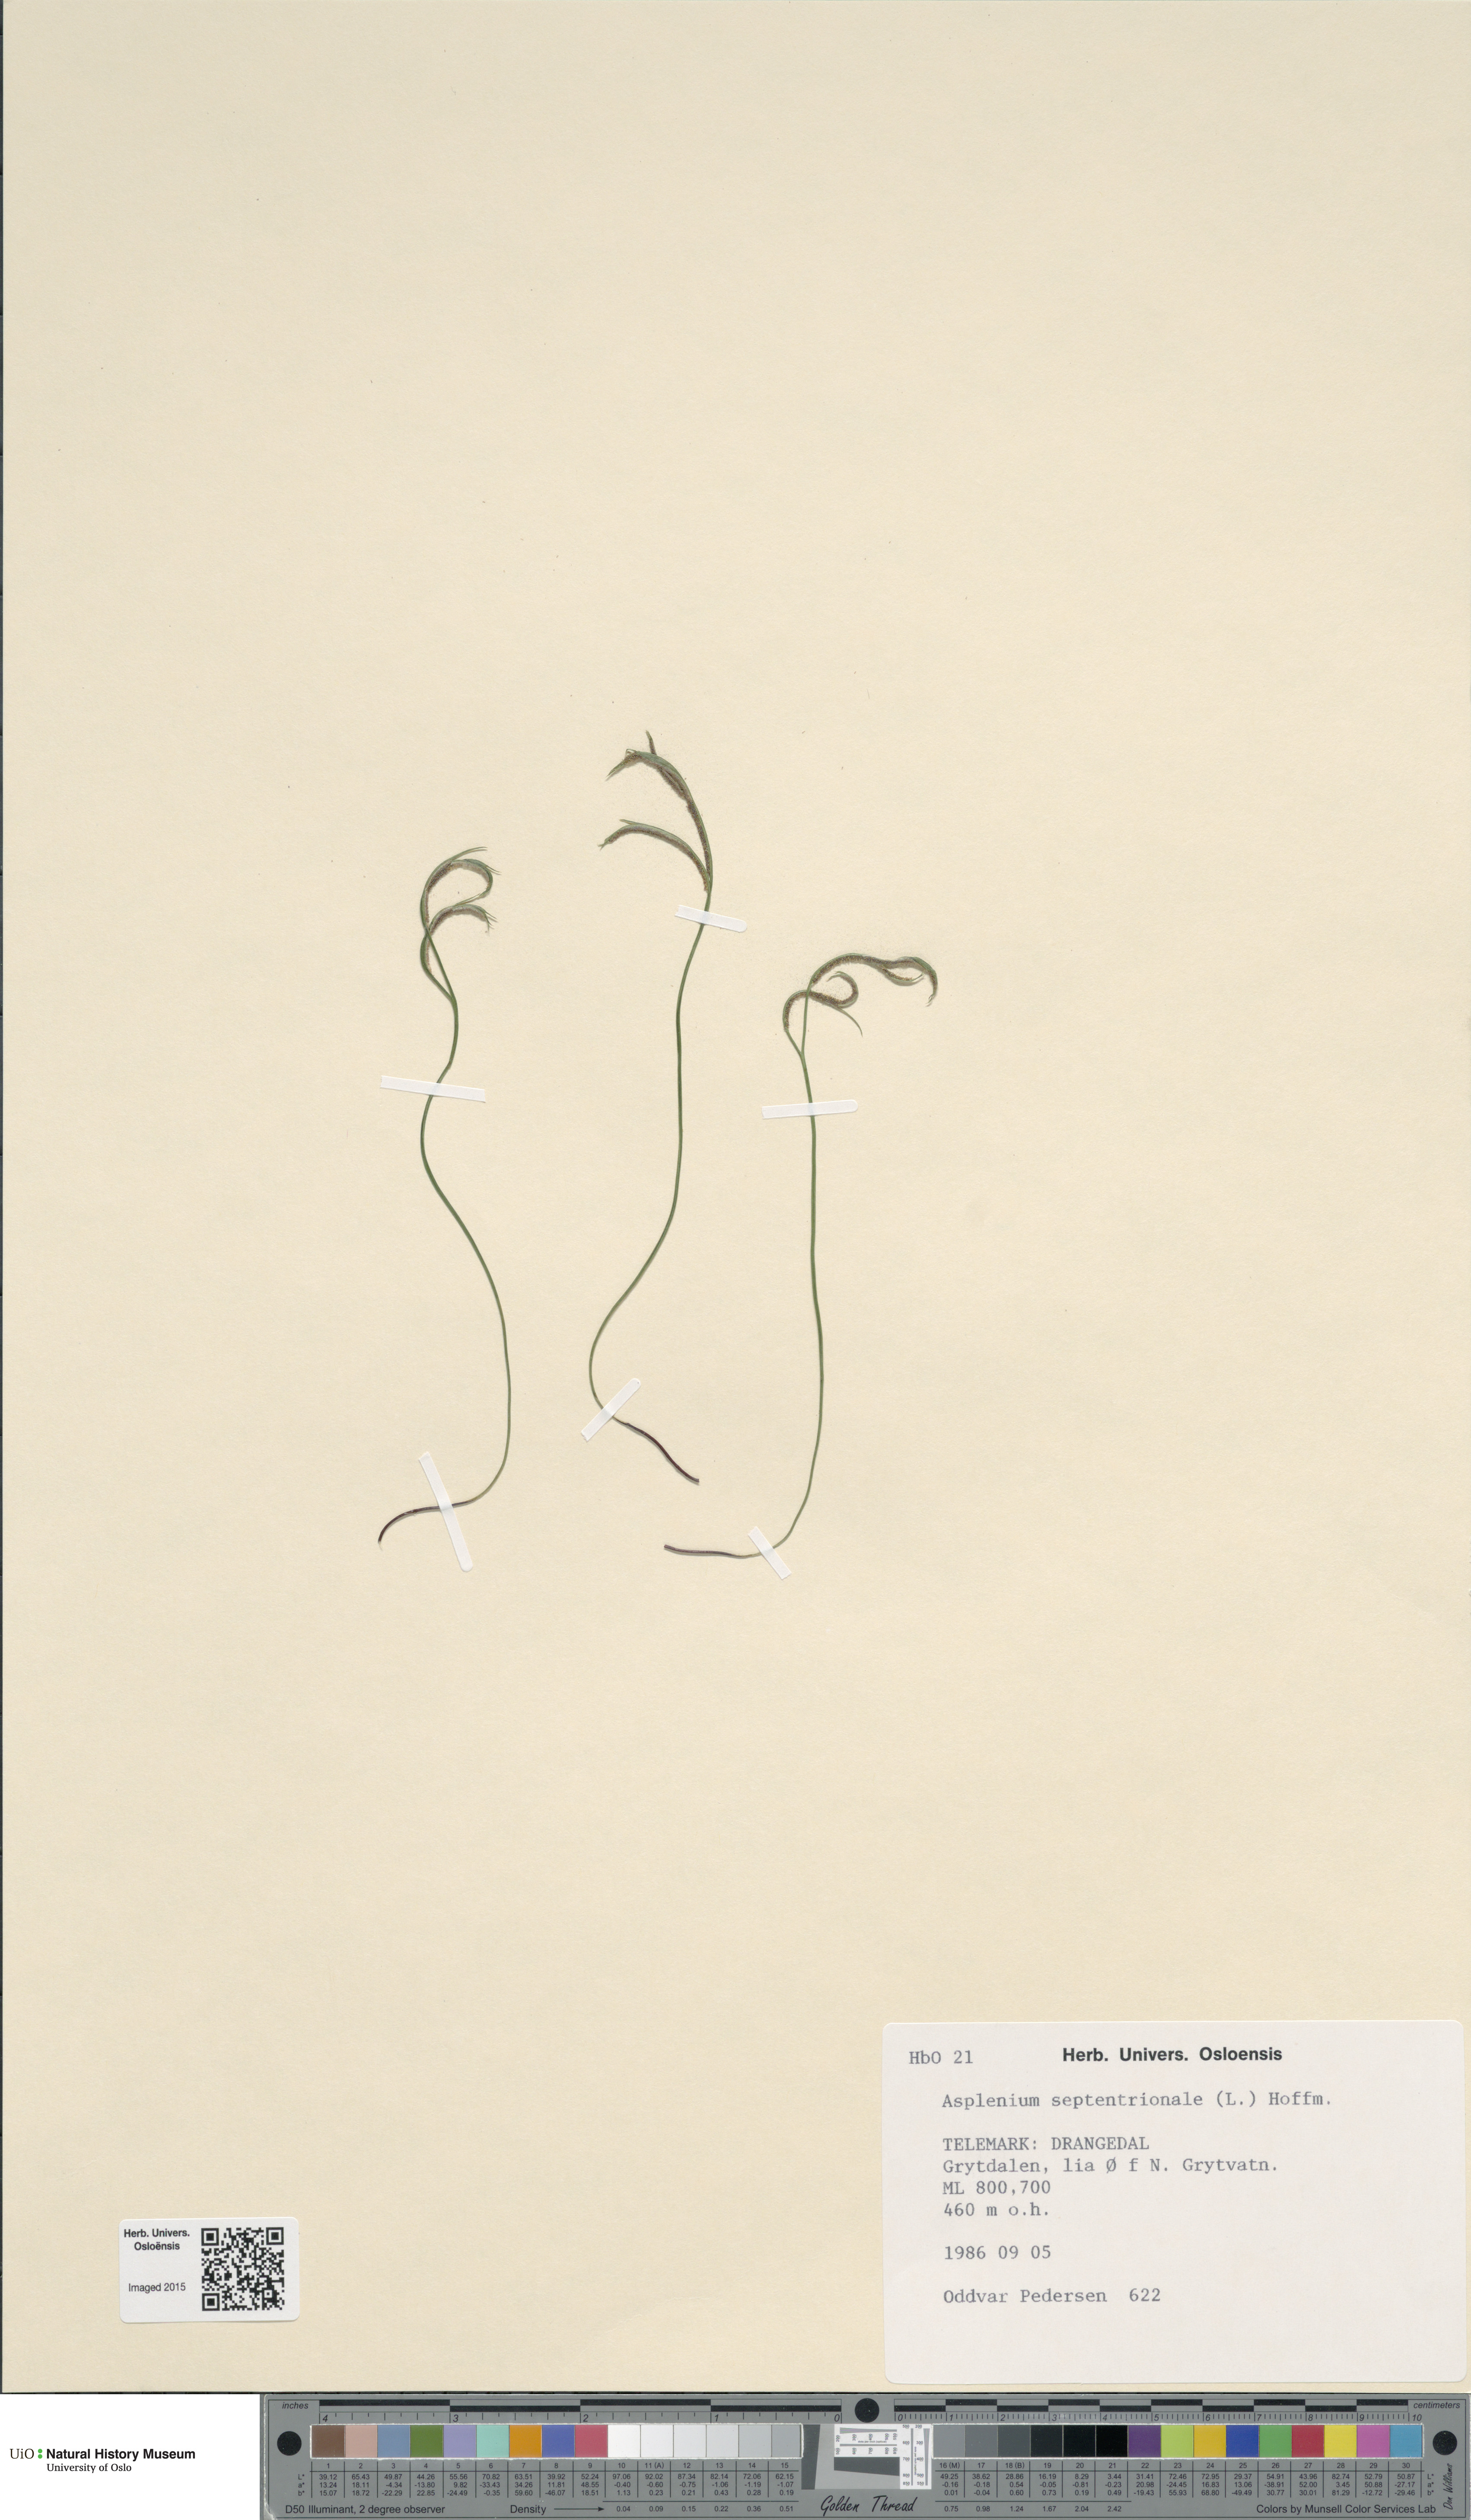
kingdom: Plantae
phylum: Tracheophyta
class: Polypodiopsida
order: Polypodiales
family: Aspleniaceae
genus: Asplenium
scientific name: Asplenium septentrionale
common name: Forked spleenwort
